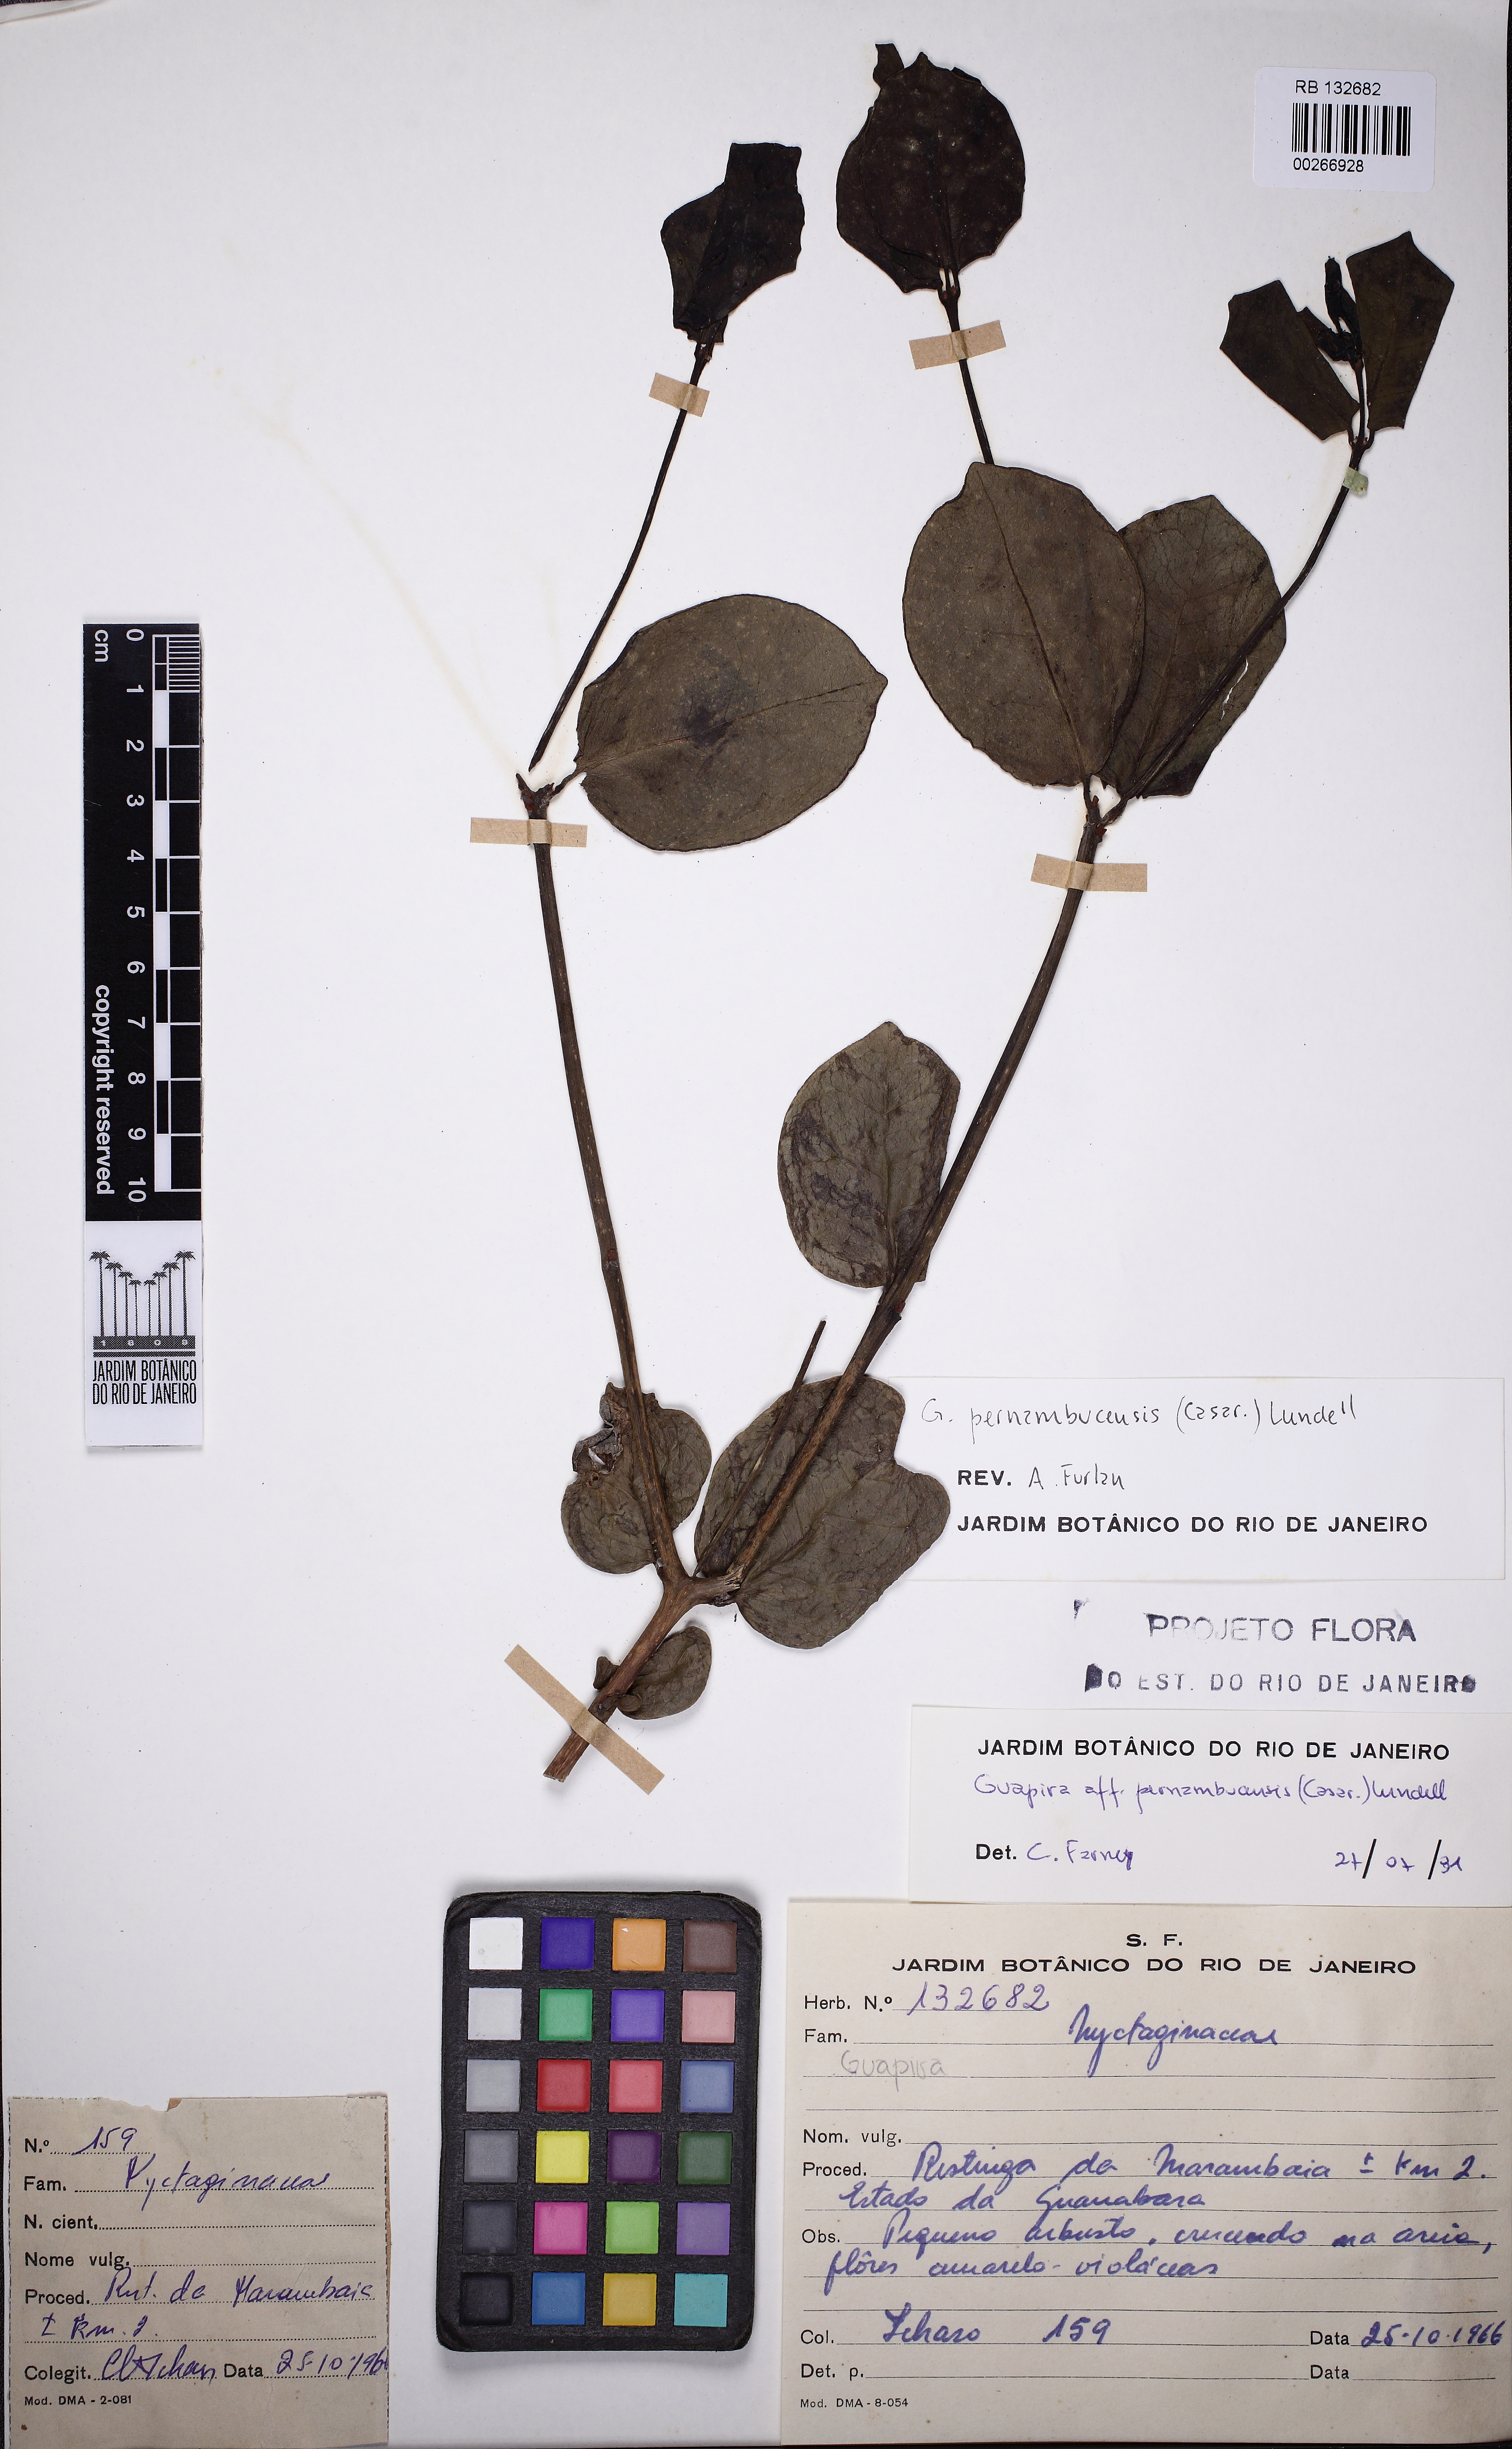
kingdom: Plantae
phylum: Tracheophyta
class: Magnoliopsida
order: Caryophyllales
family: Nyctaginaceae
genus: Guapira
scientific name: Guapira pernambucensis
